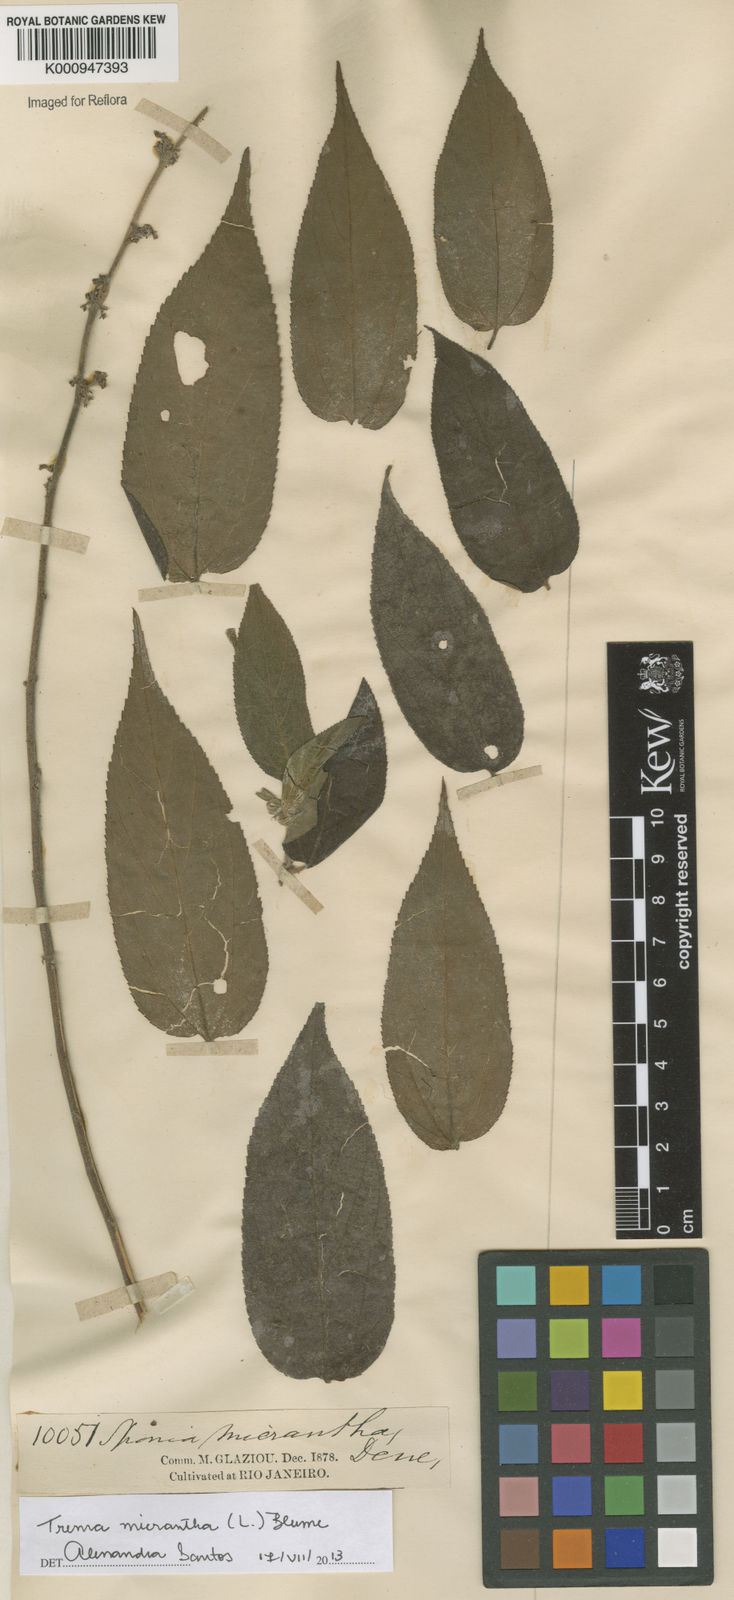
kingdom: Plantae
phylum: Tracheophyta
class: Magnoliopsida
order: Rosales
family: Cannabaceae
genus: Trema
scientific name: Trema micranthum
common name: Jamaican nettletree
